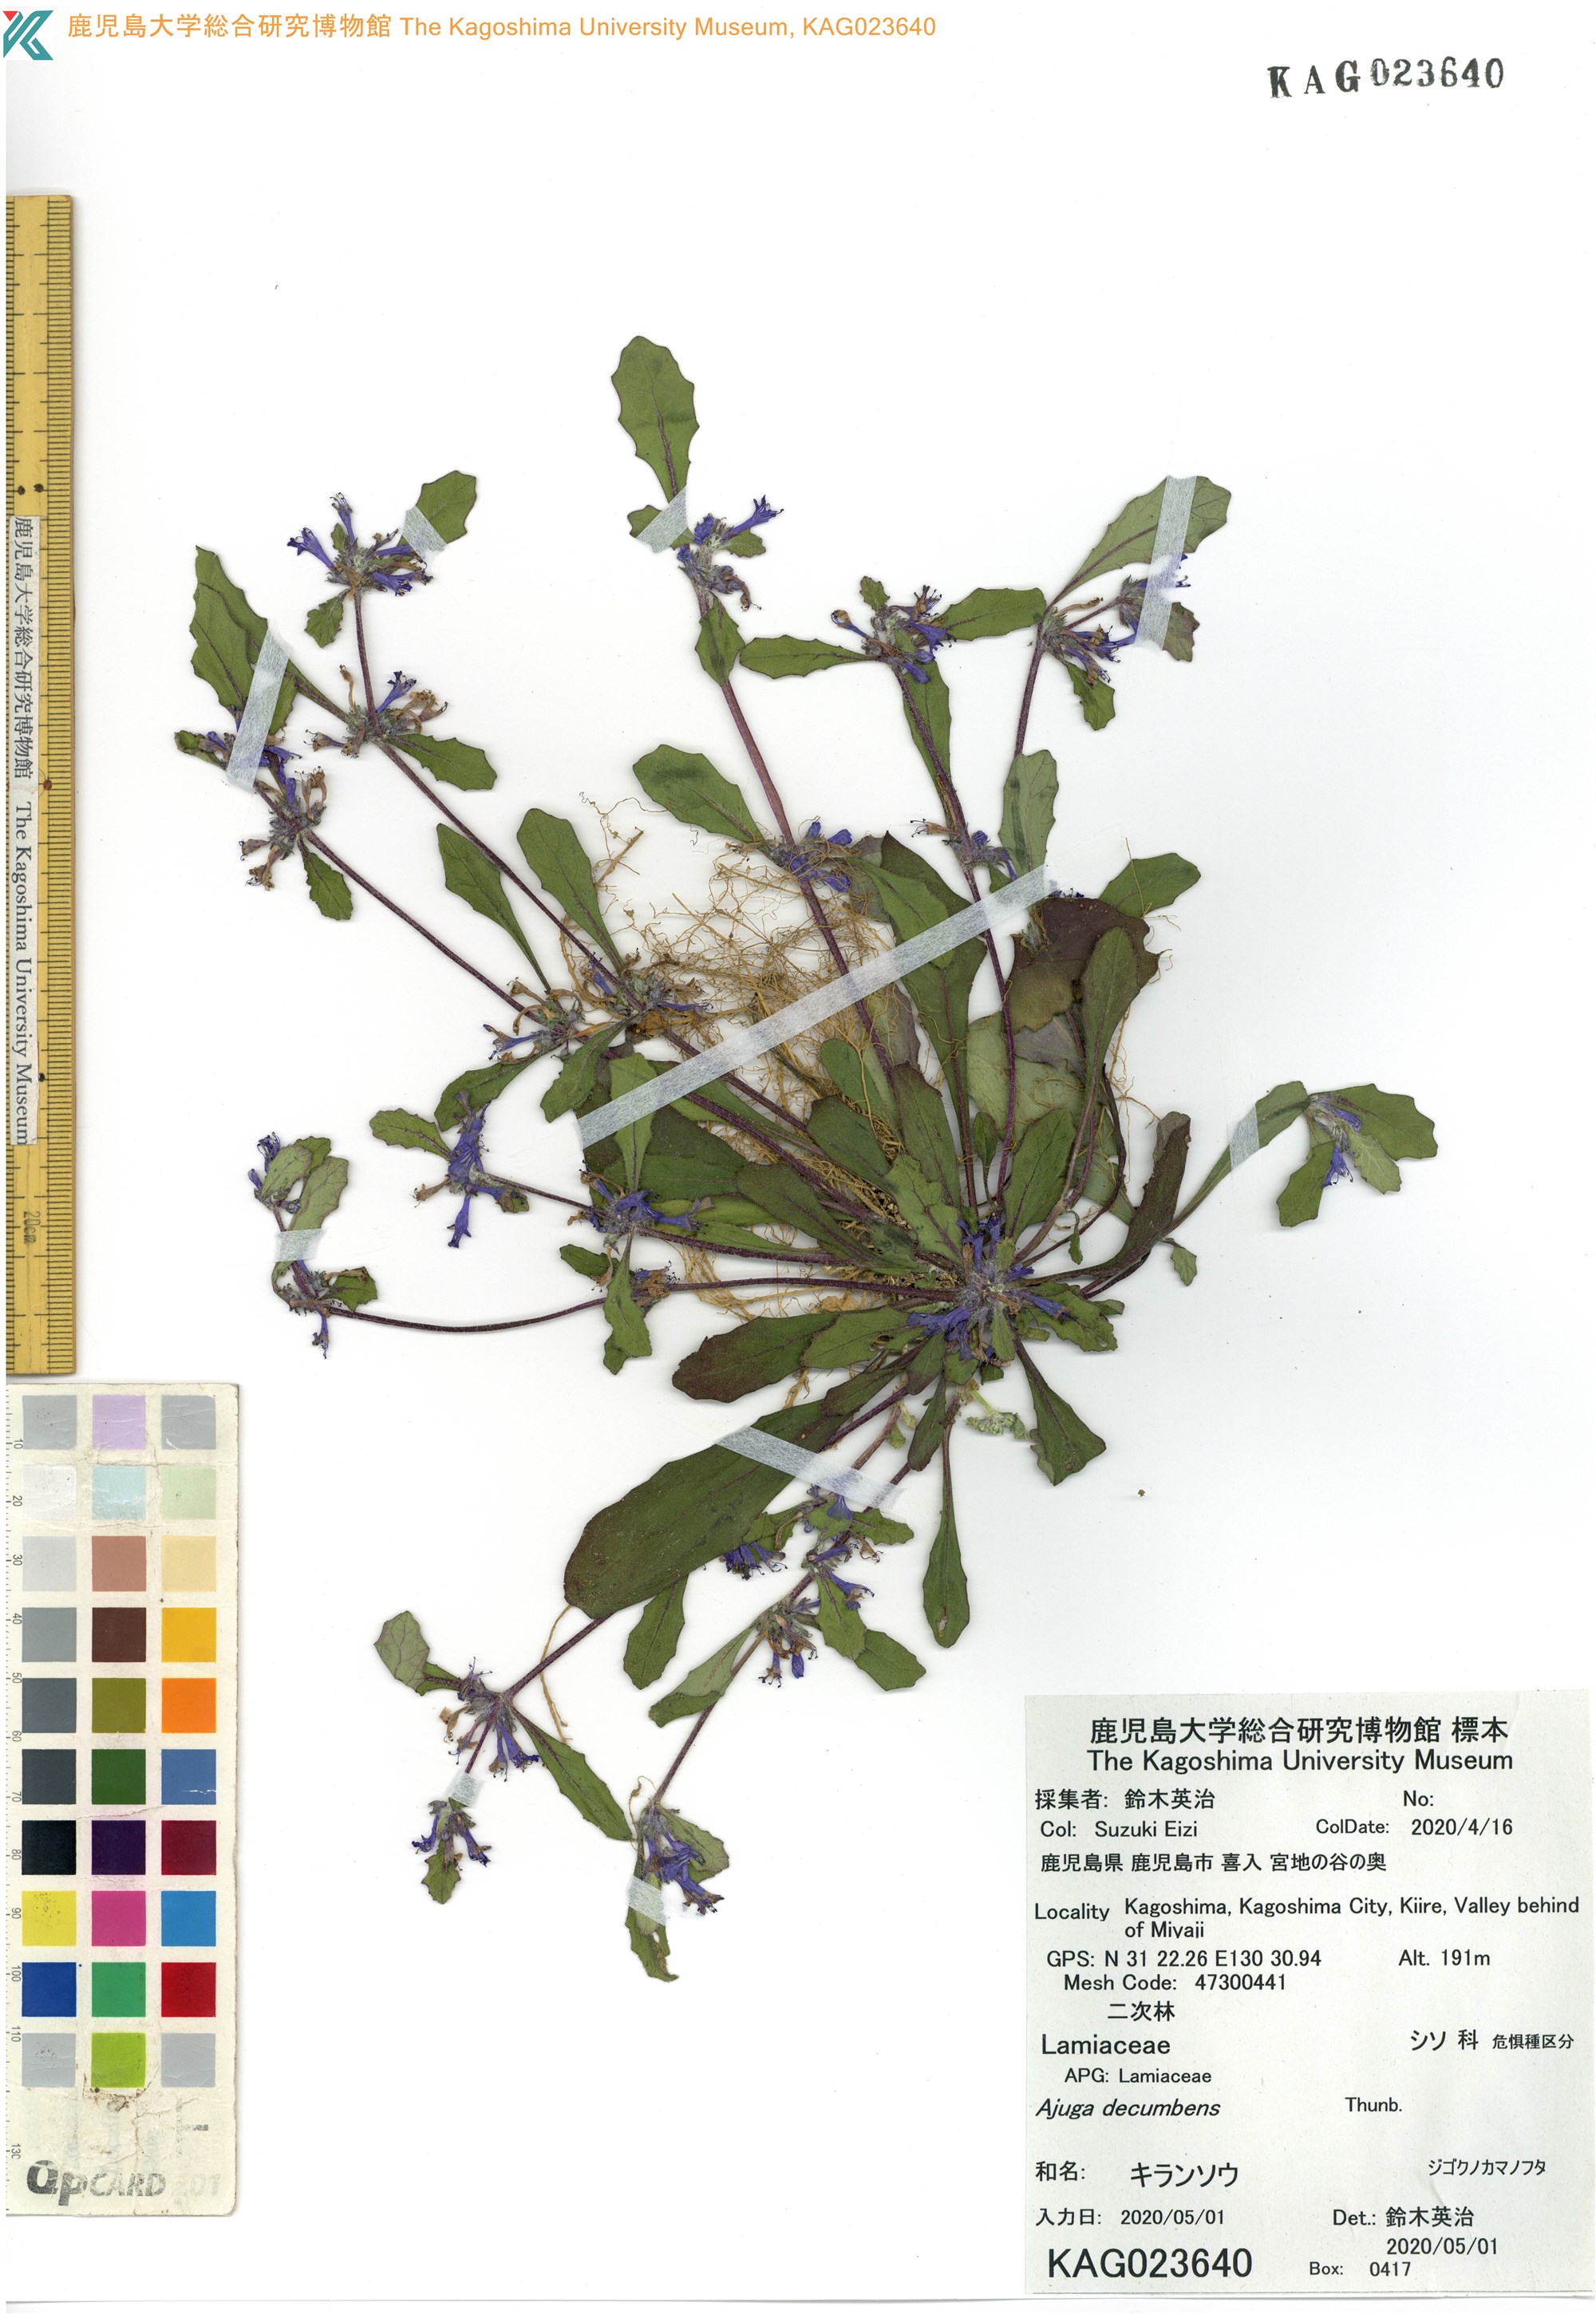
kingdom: Plantae
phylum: Tracheophyta
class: Magnoliopsida
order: Lamiales
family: Lamiaceae
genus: Ajuga
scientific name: Ajuga decumbens
